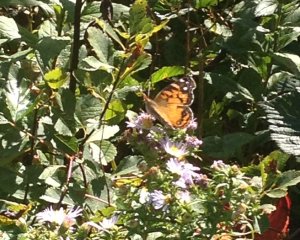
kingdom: Animalia
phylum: Arthropoda
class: Insecta
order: Lepidoptera
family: Nymphalidae
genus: Vanessa
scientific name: Vanessa virginiensis
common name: American Lady
